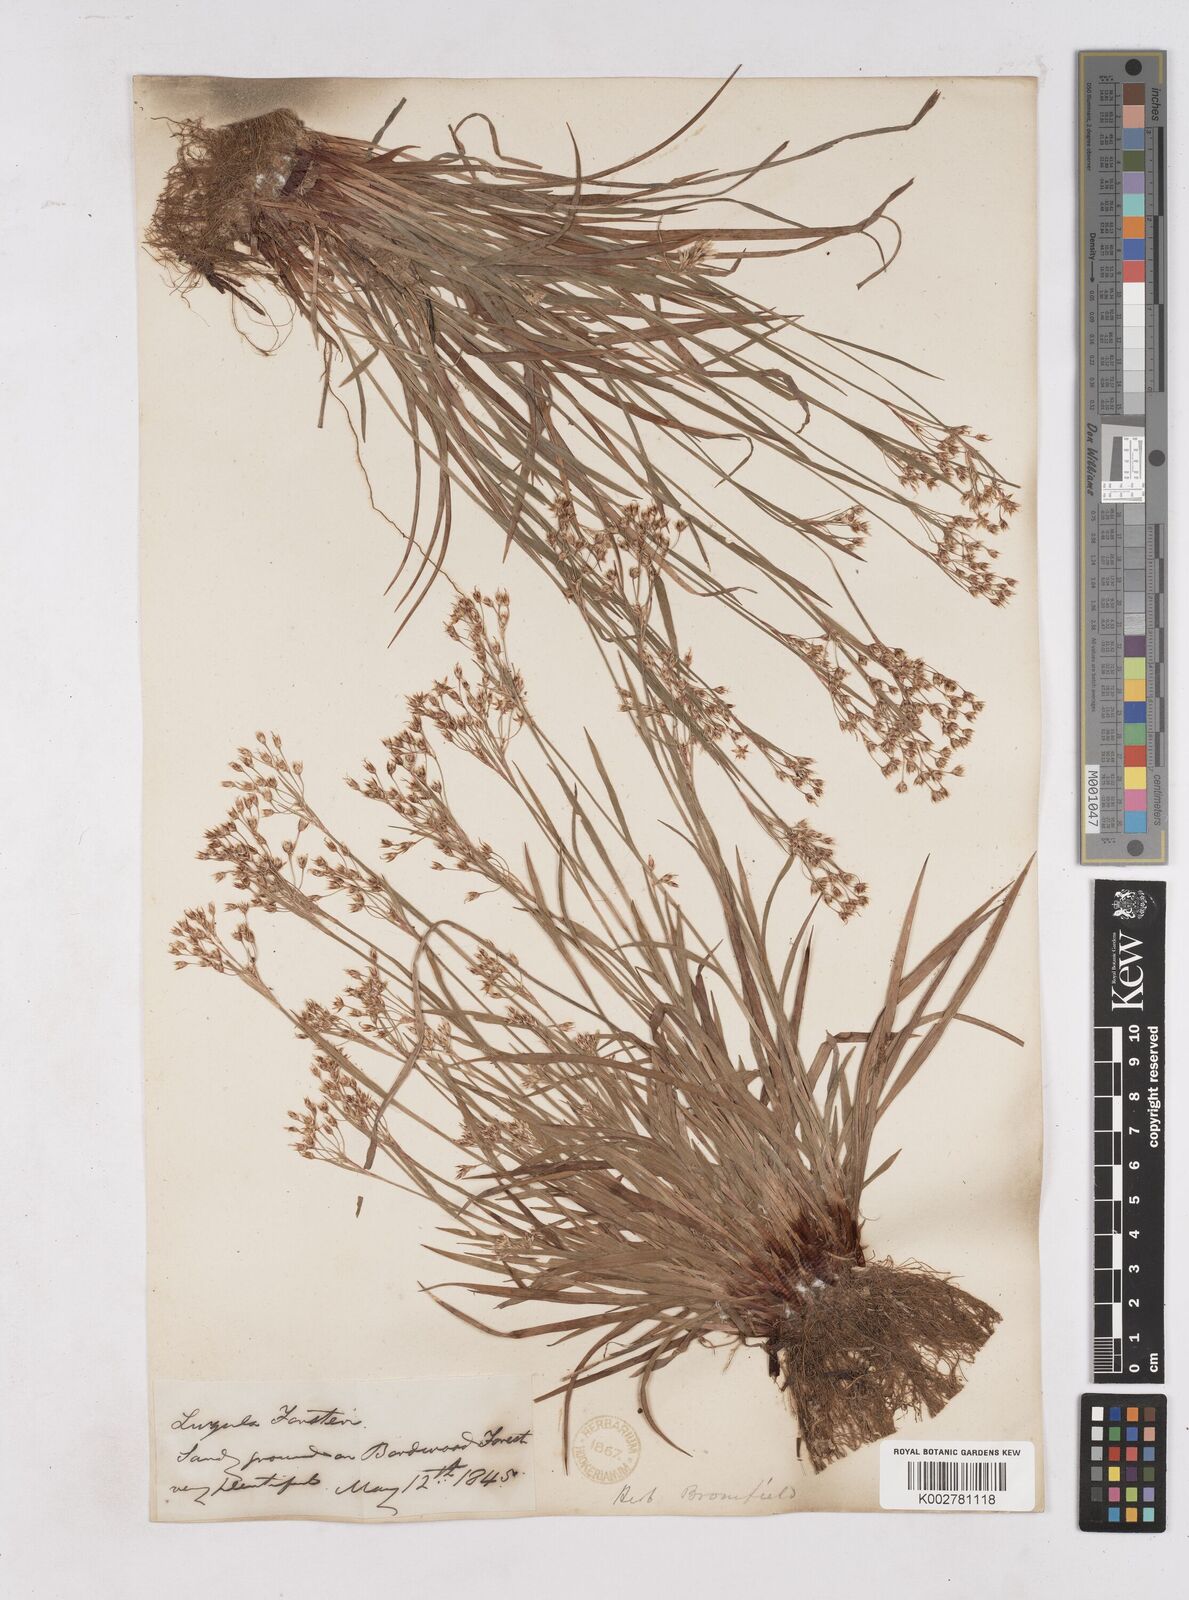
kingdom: Plantae
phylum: Tracheophyta
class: Liliopsida
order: Poales
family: Juncaceae
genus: Luzula
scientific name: Luzula forsteri
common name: Southern wood-rush
